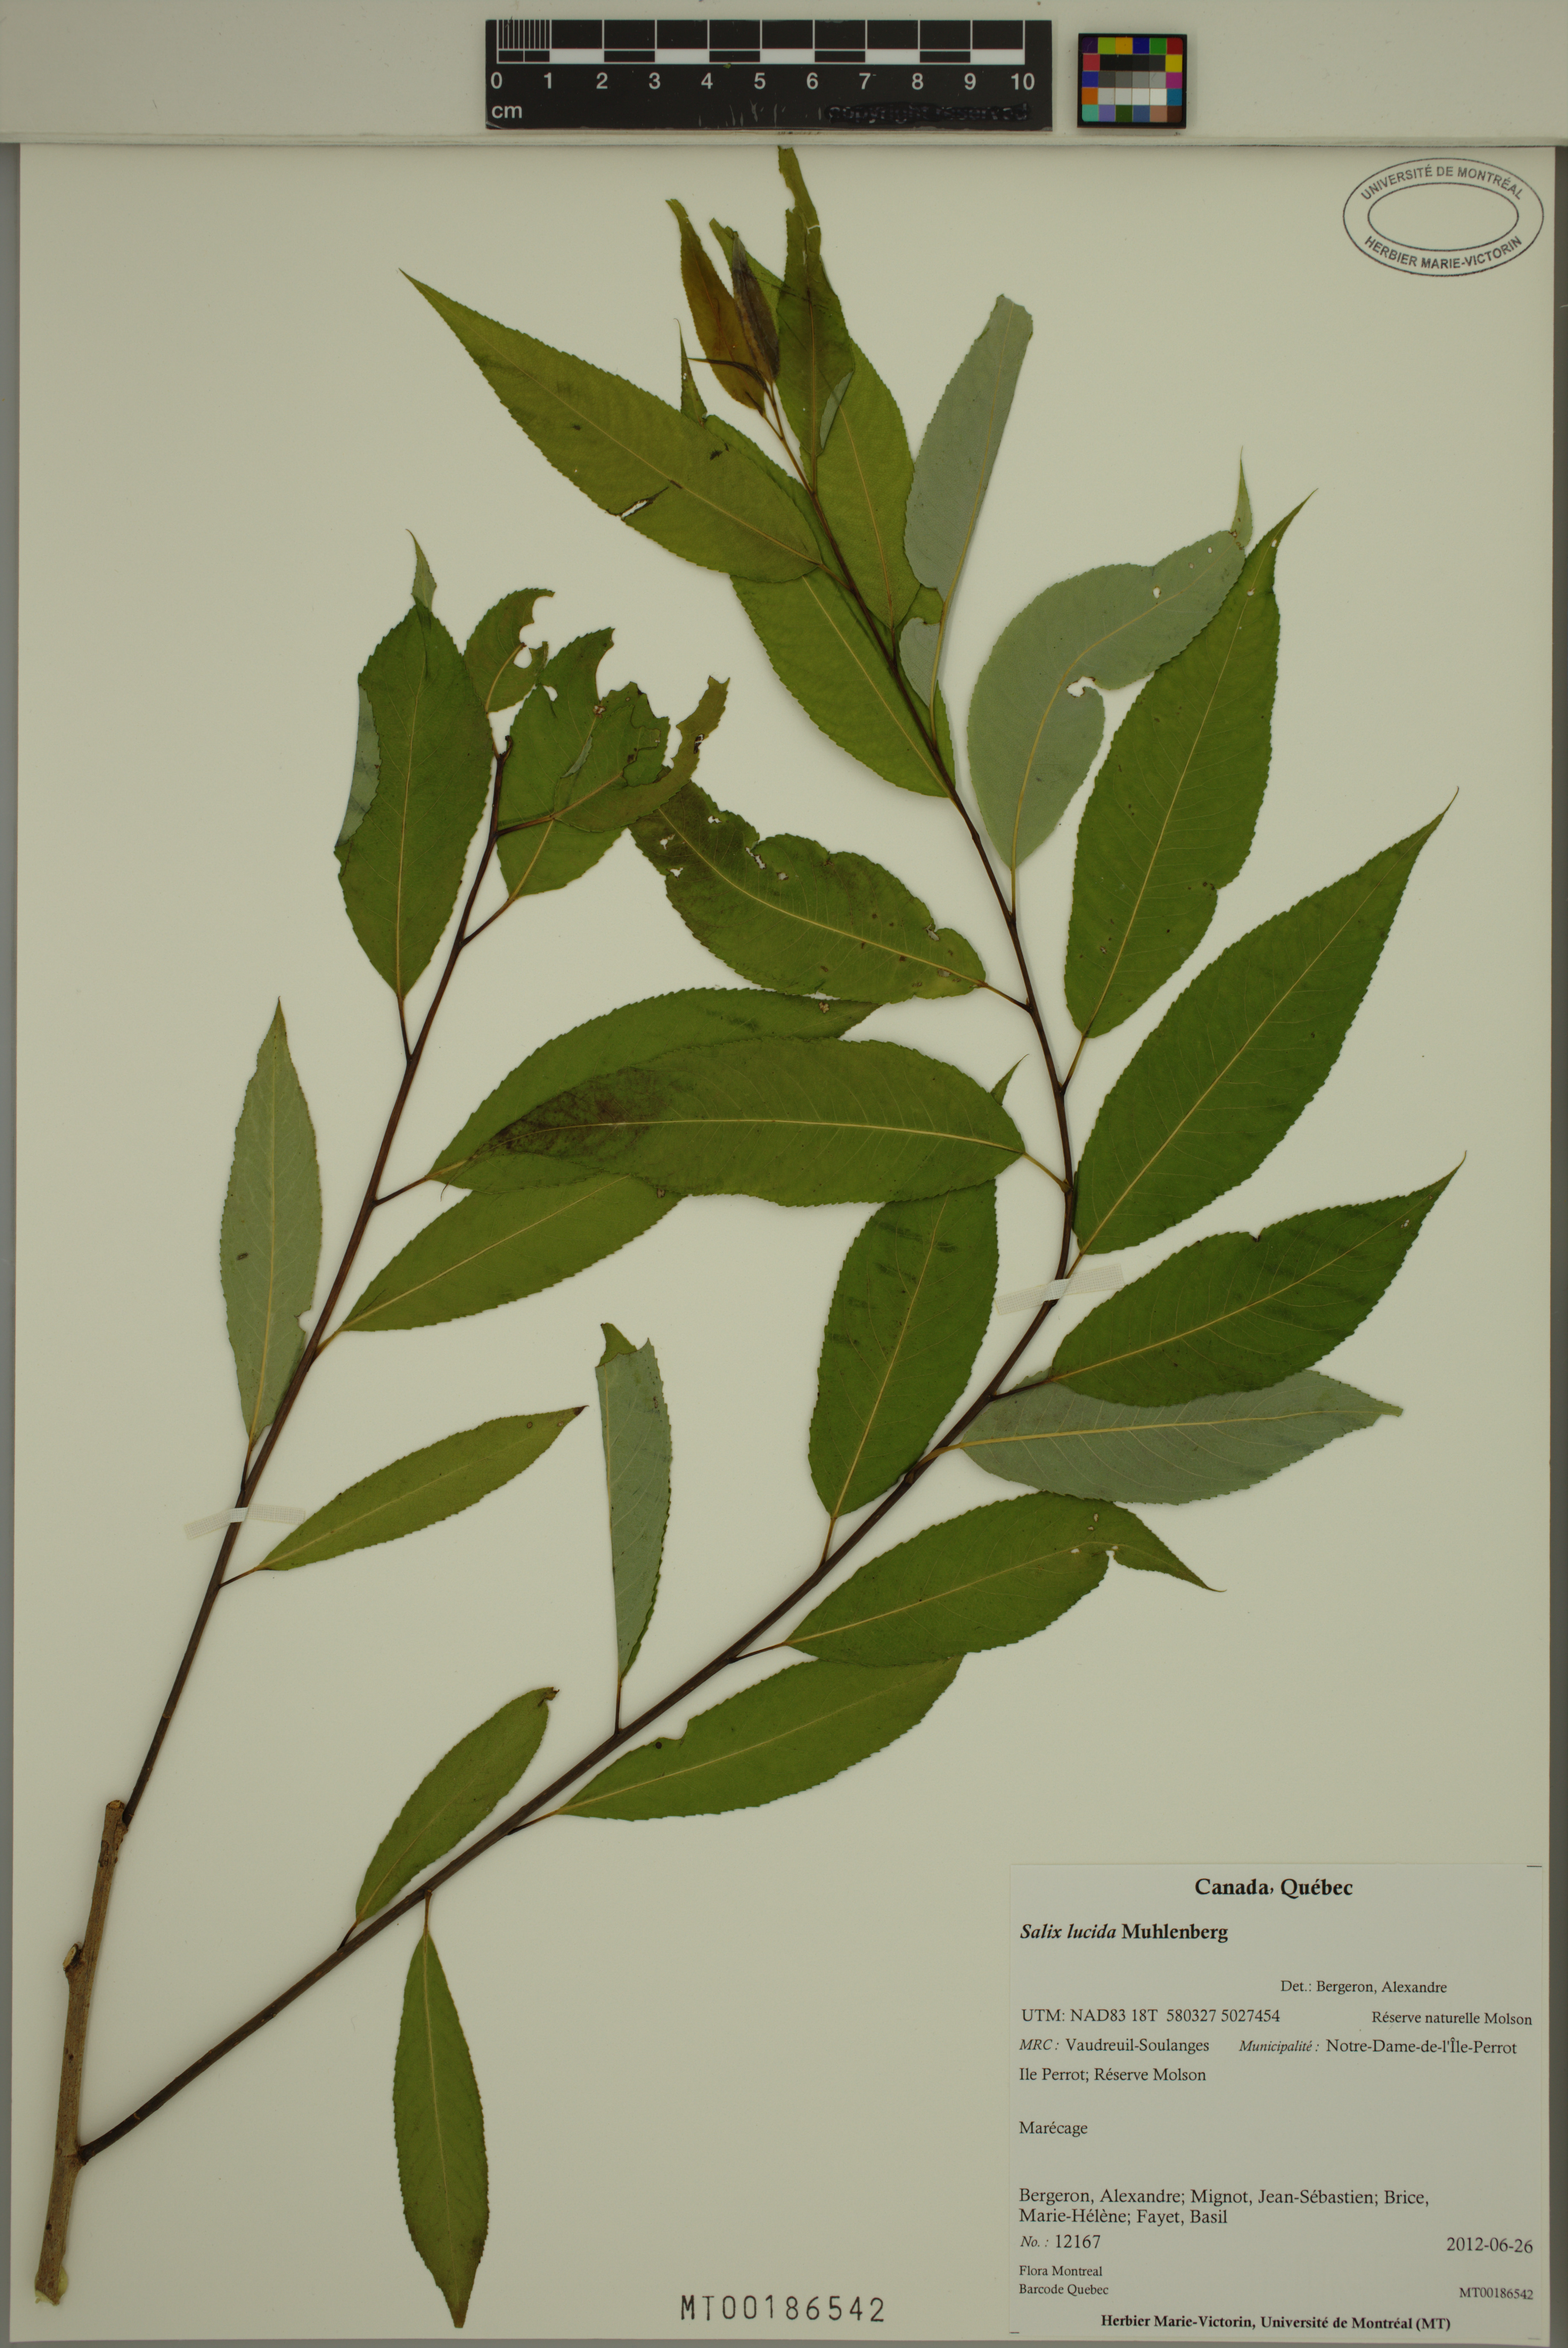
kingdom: Plantae
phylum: Tracheophyta
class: Magnoliopsida
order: Malpighiales
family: Salicaceae
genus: Salix
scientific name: Salix lucida
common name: Shining willow
